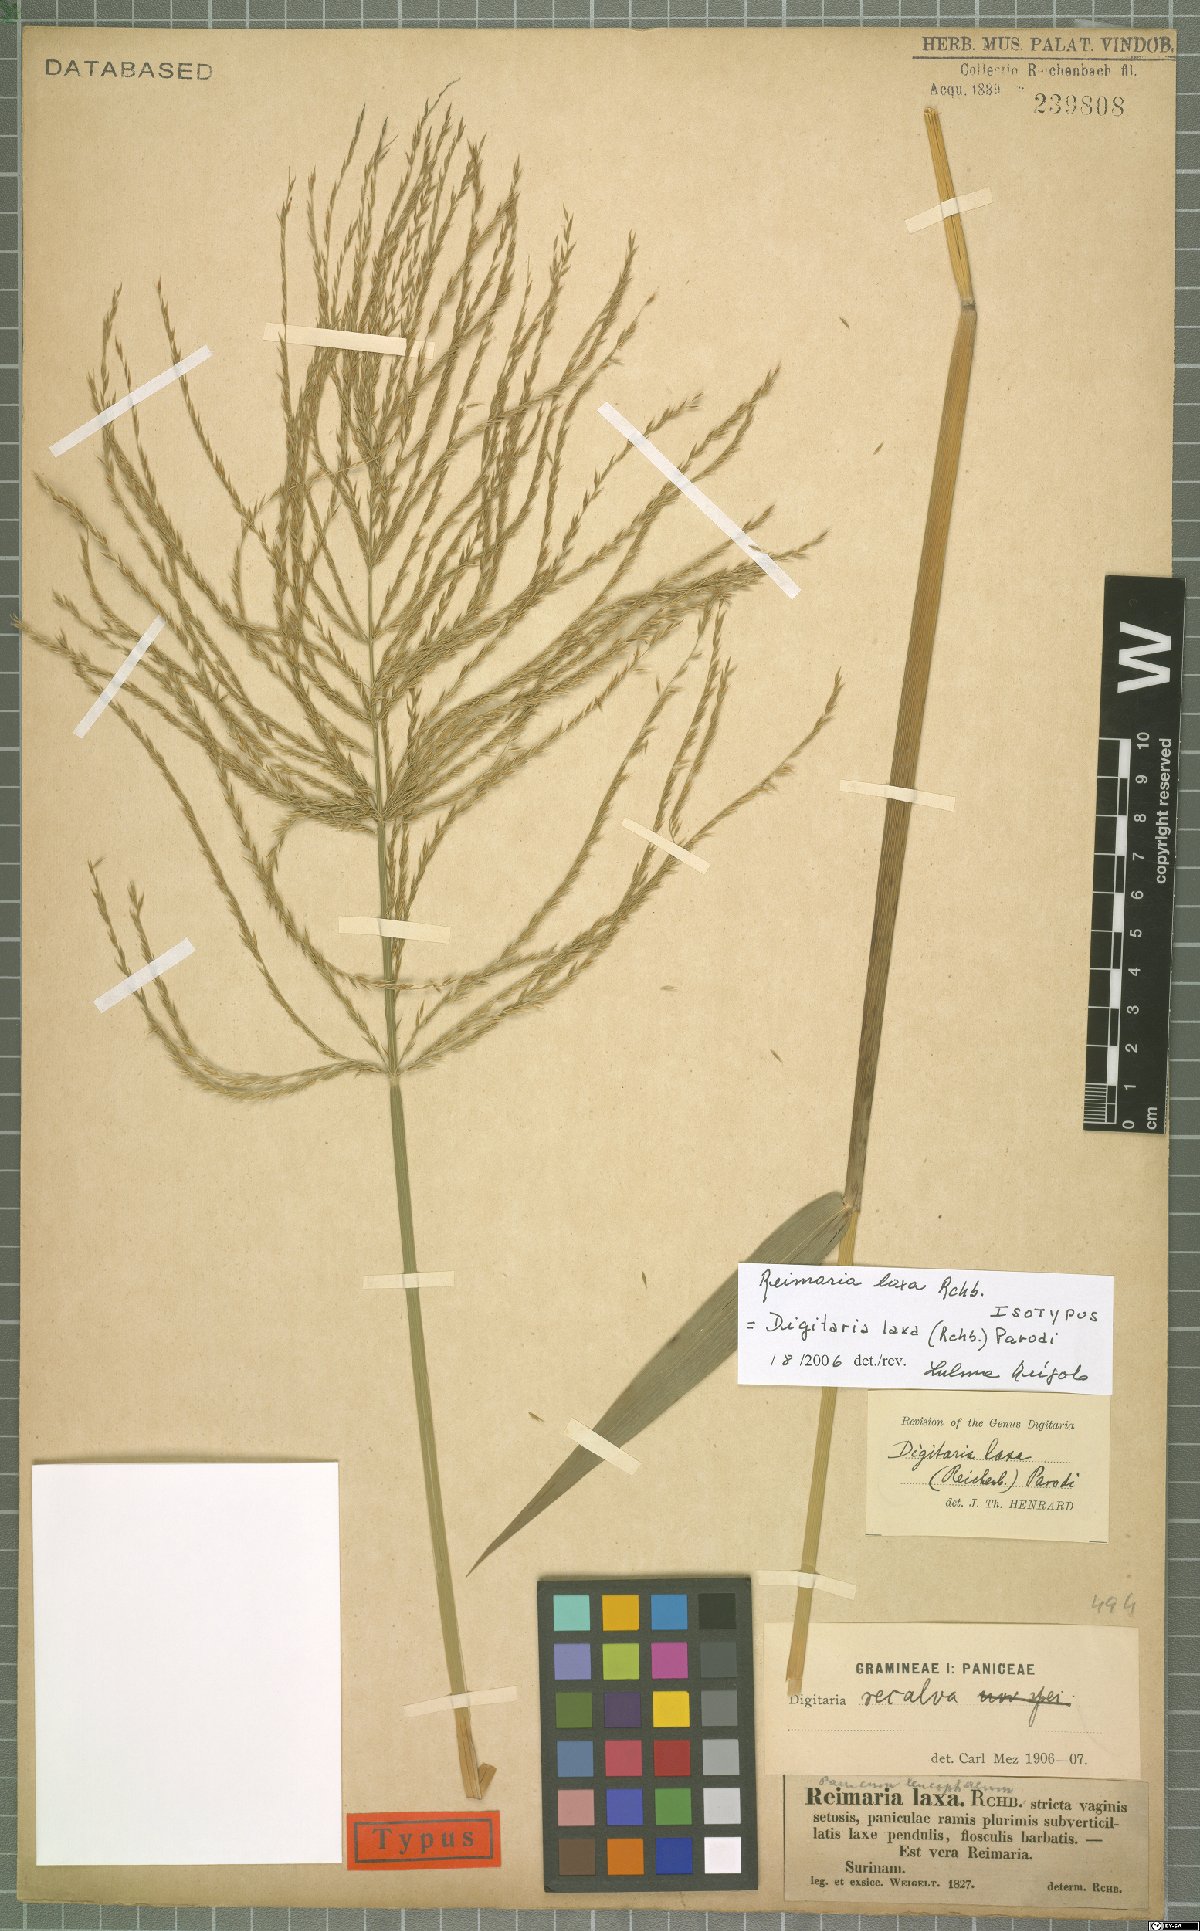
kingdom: Plantae
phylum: Tracheophyta
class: Liliopsida
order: Poales
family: Poaceae
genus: Digitaria
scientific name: Digitaria laxa
